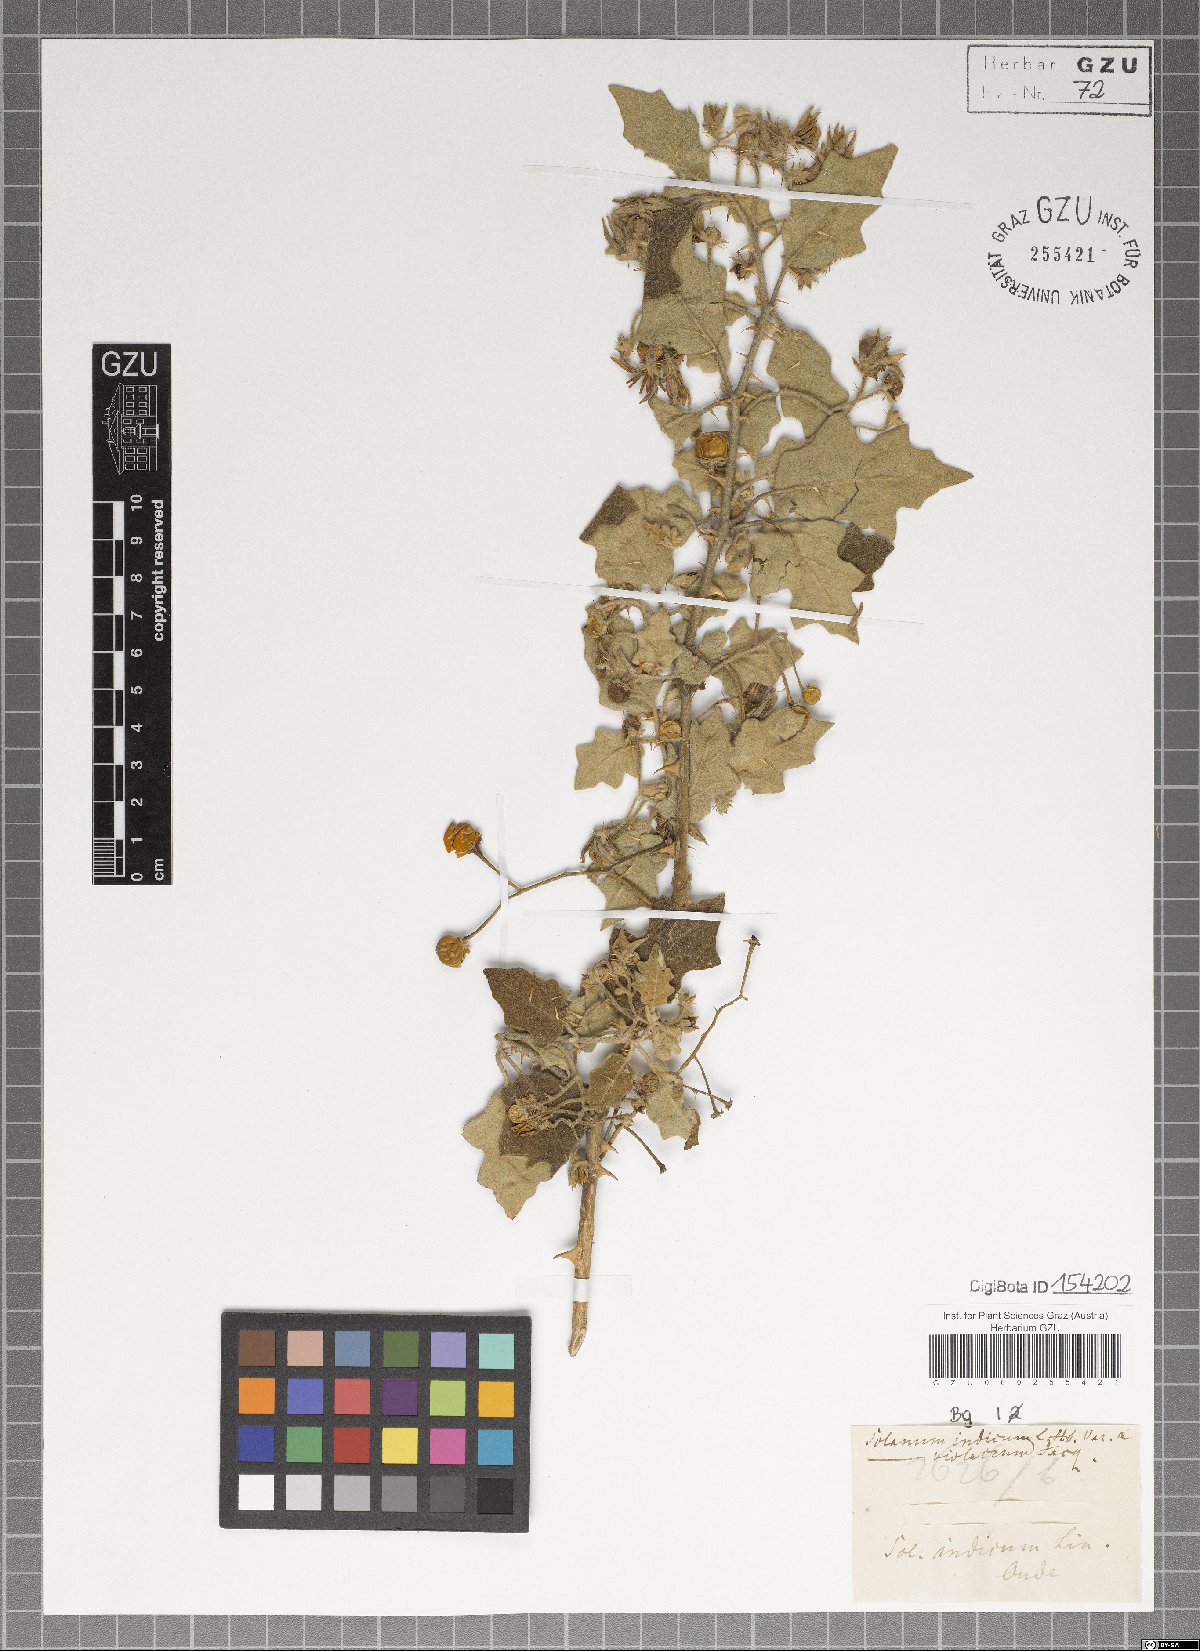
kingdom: Plantae
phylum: Tracheophyta
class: Magnoliopsida
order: Solanales
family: Solanaceae
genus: Solanum
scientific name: Solanum violaceum
